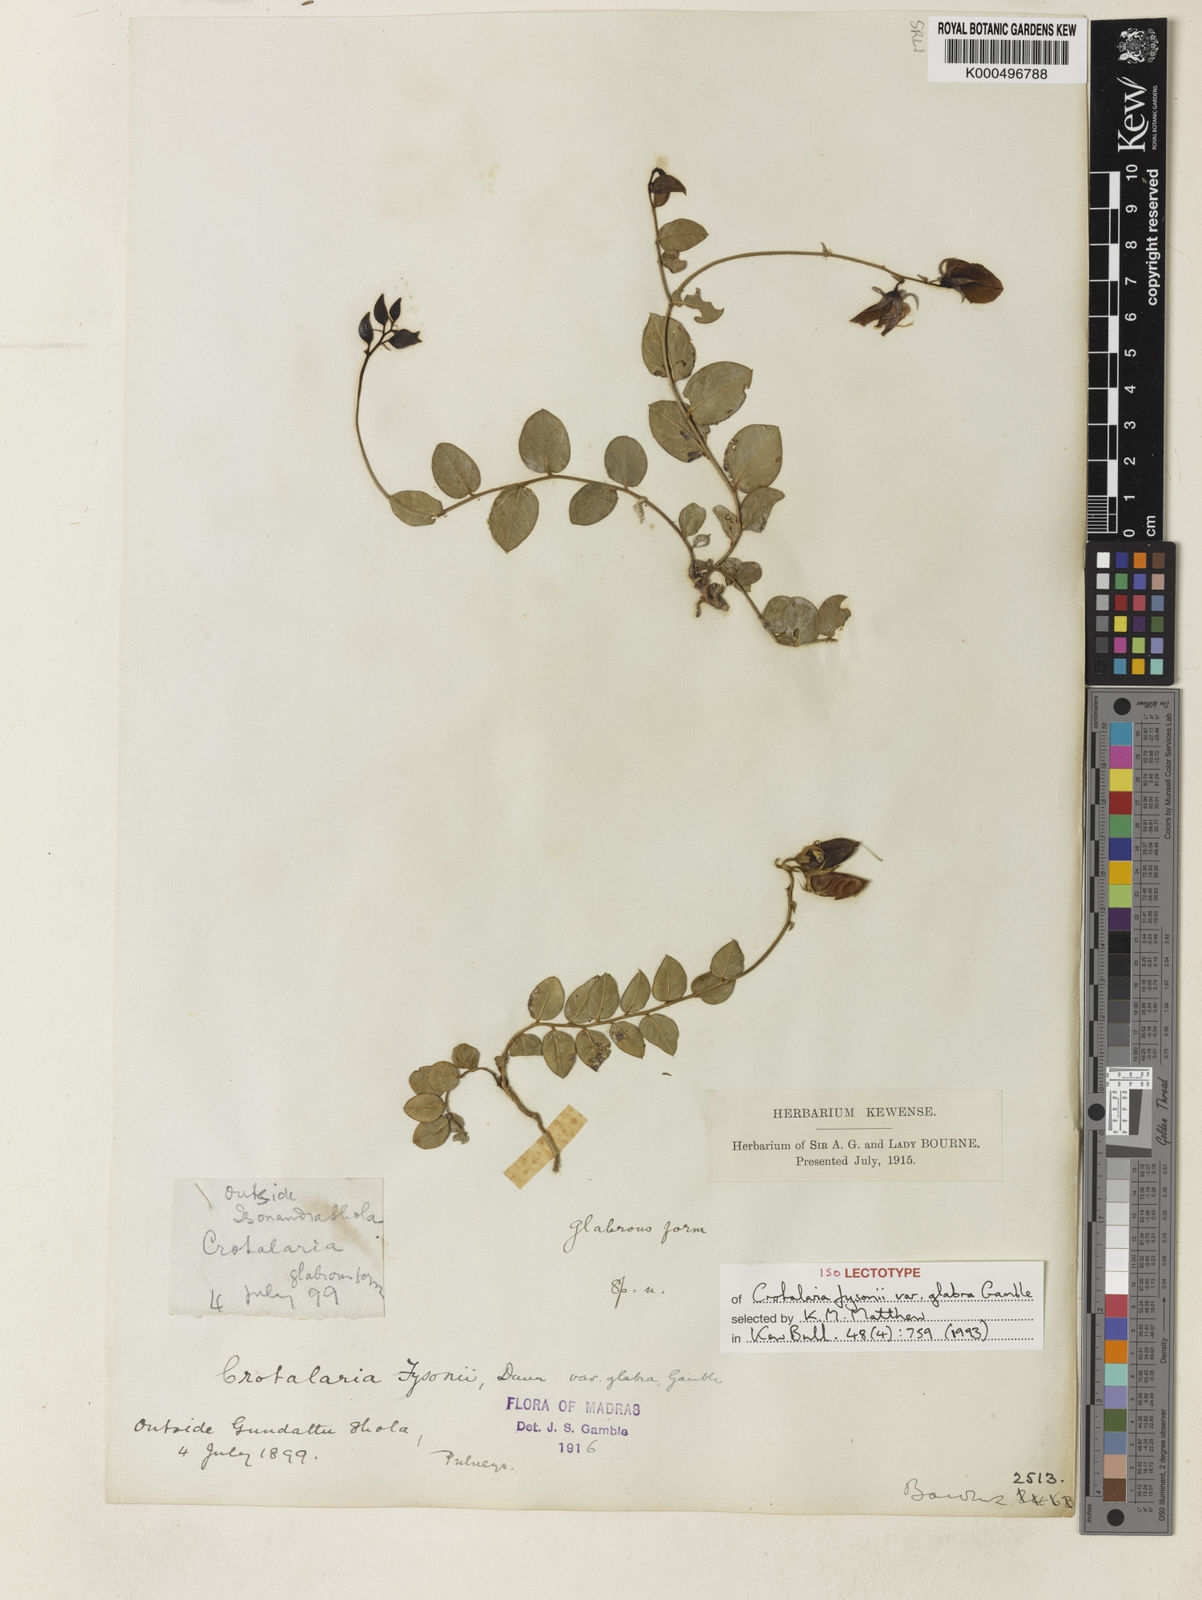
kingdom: Plantae
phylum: Tracheophyta
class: Magnoliopsida
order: Fabales
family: Fabaceae
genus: Crotalaria
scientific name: Crotalaria fysonii
